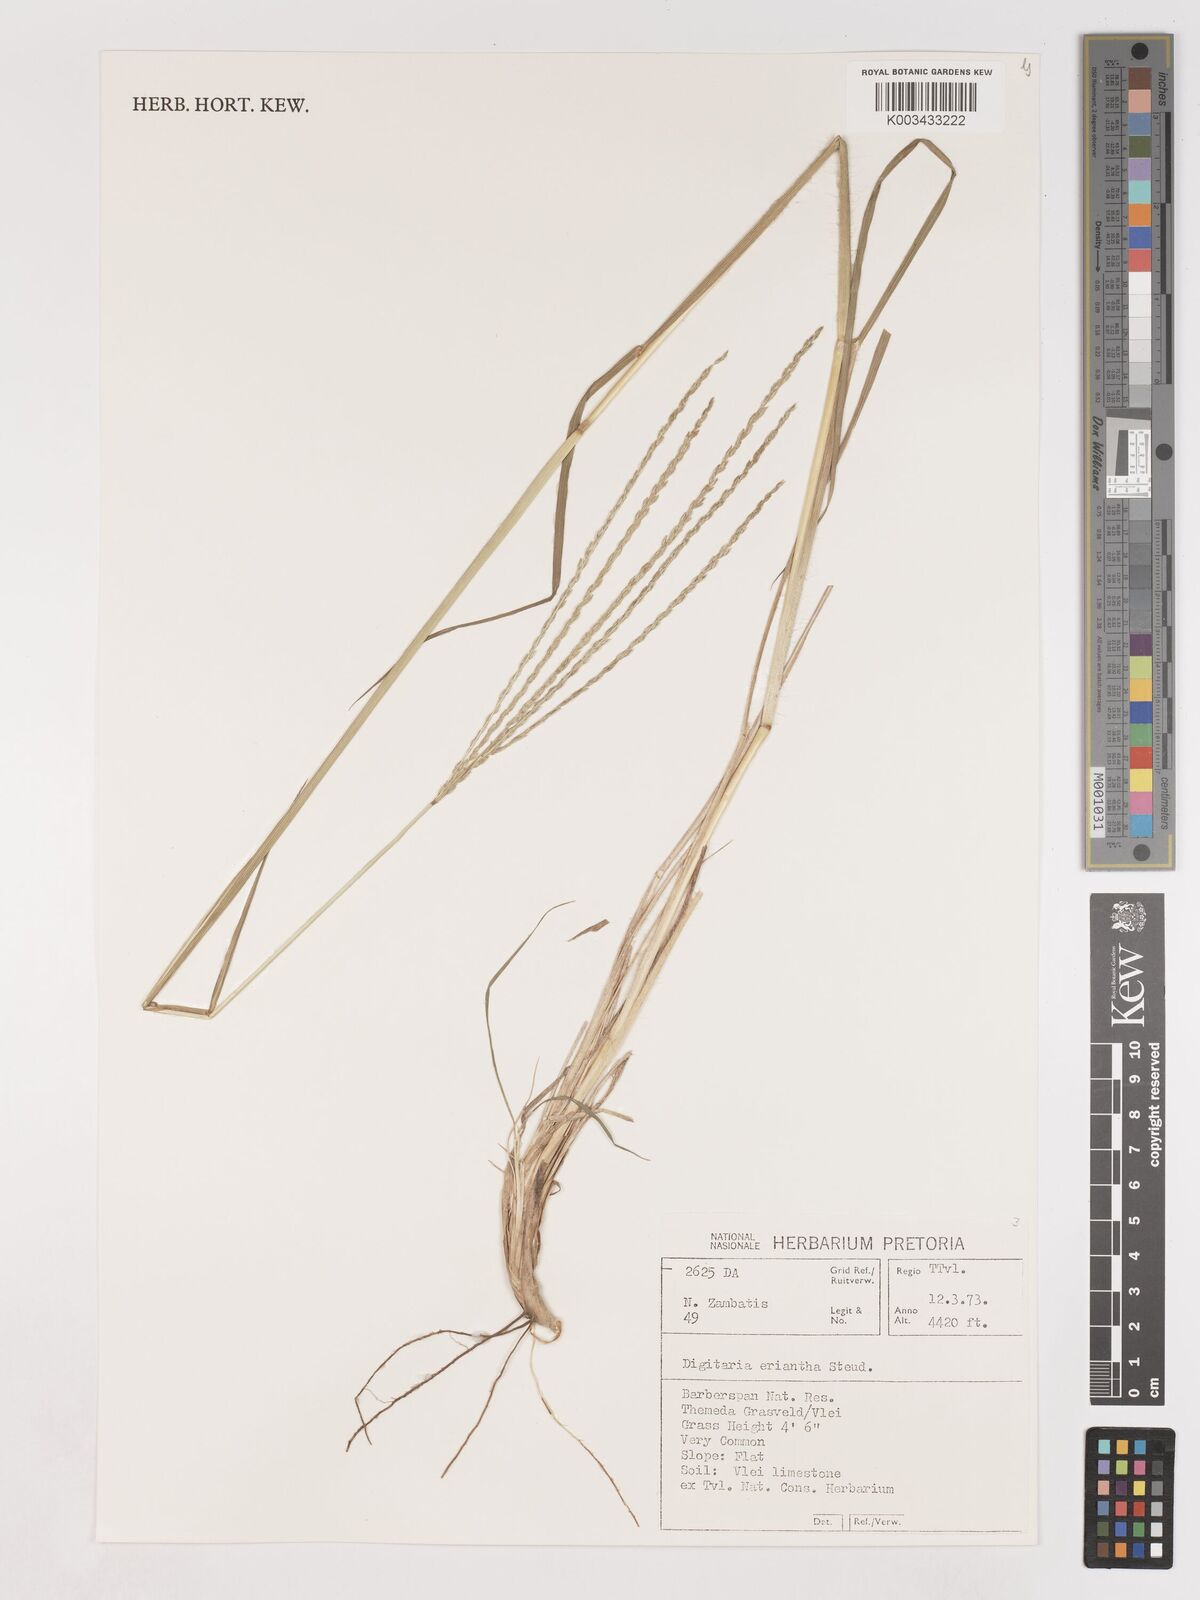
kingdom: Plantae
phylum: Tracheophyta
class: Liliopsida
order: Poales
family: Poaceae
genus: Digitaria
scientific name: Digitaria eriantha
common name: Digitgrass
